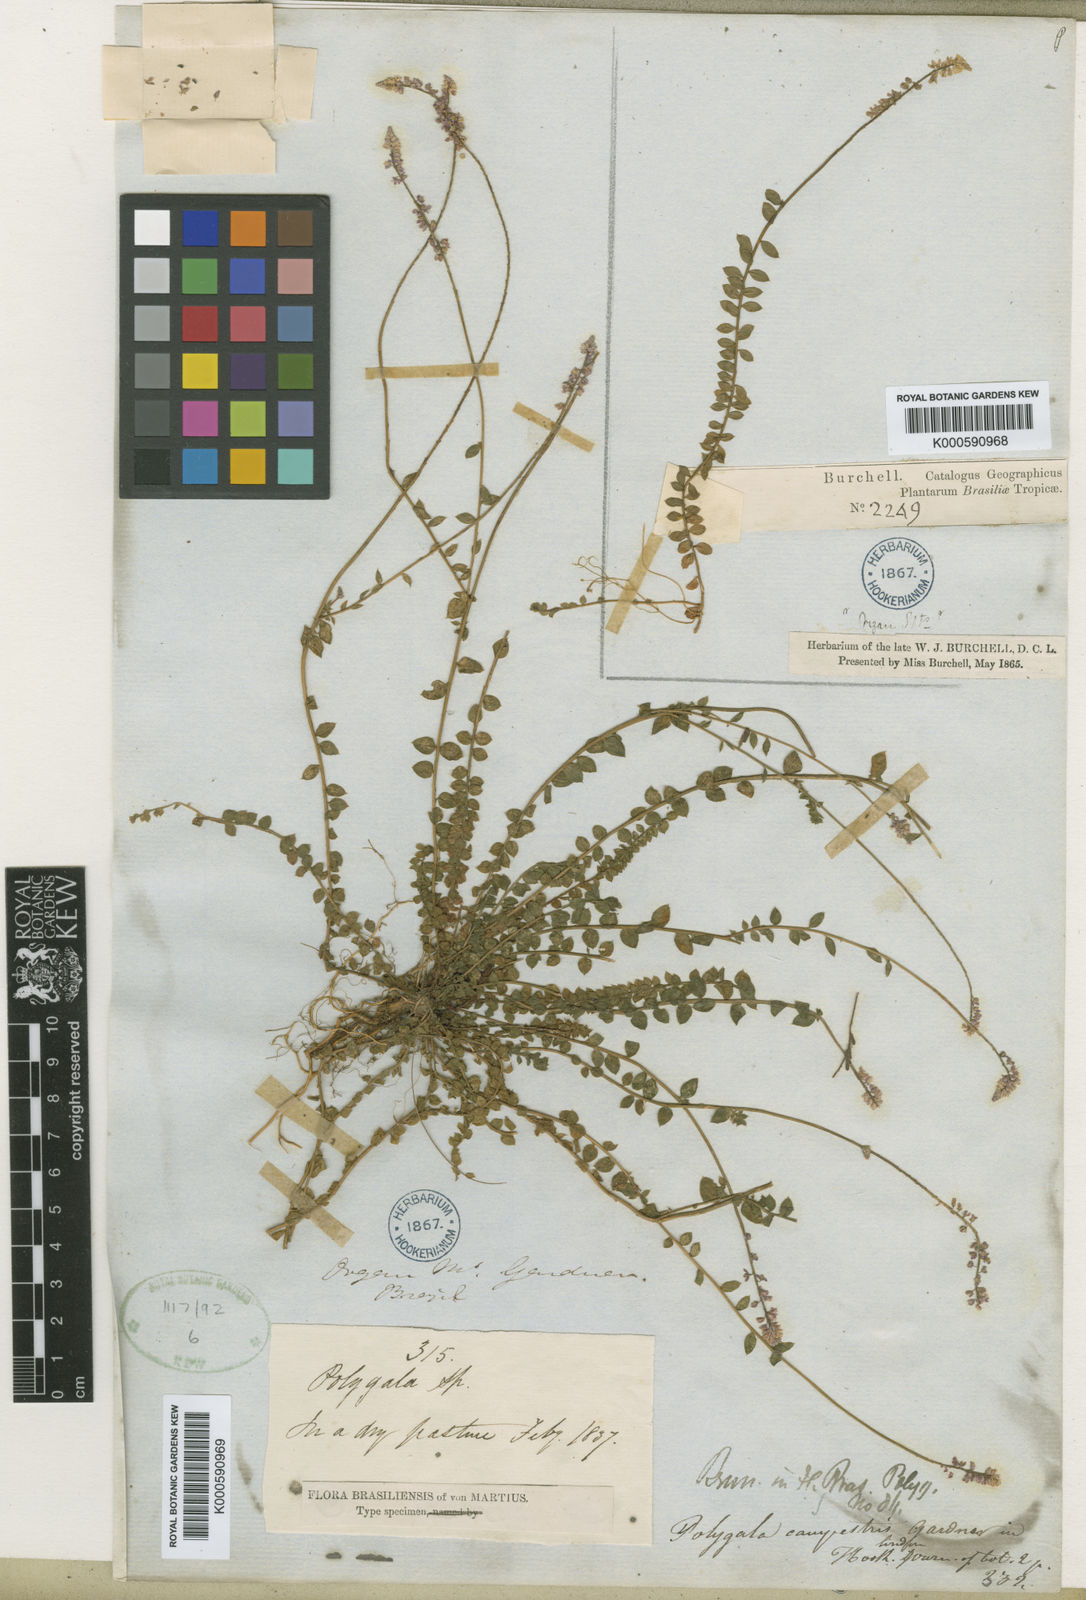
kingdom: Plantae
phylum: Tracheophyta
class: Magnoliopsida
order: Fabales
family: Polygalaceae
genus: Polygala
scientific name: Polygala campestris
